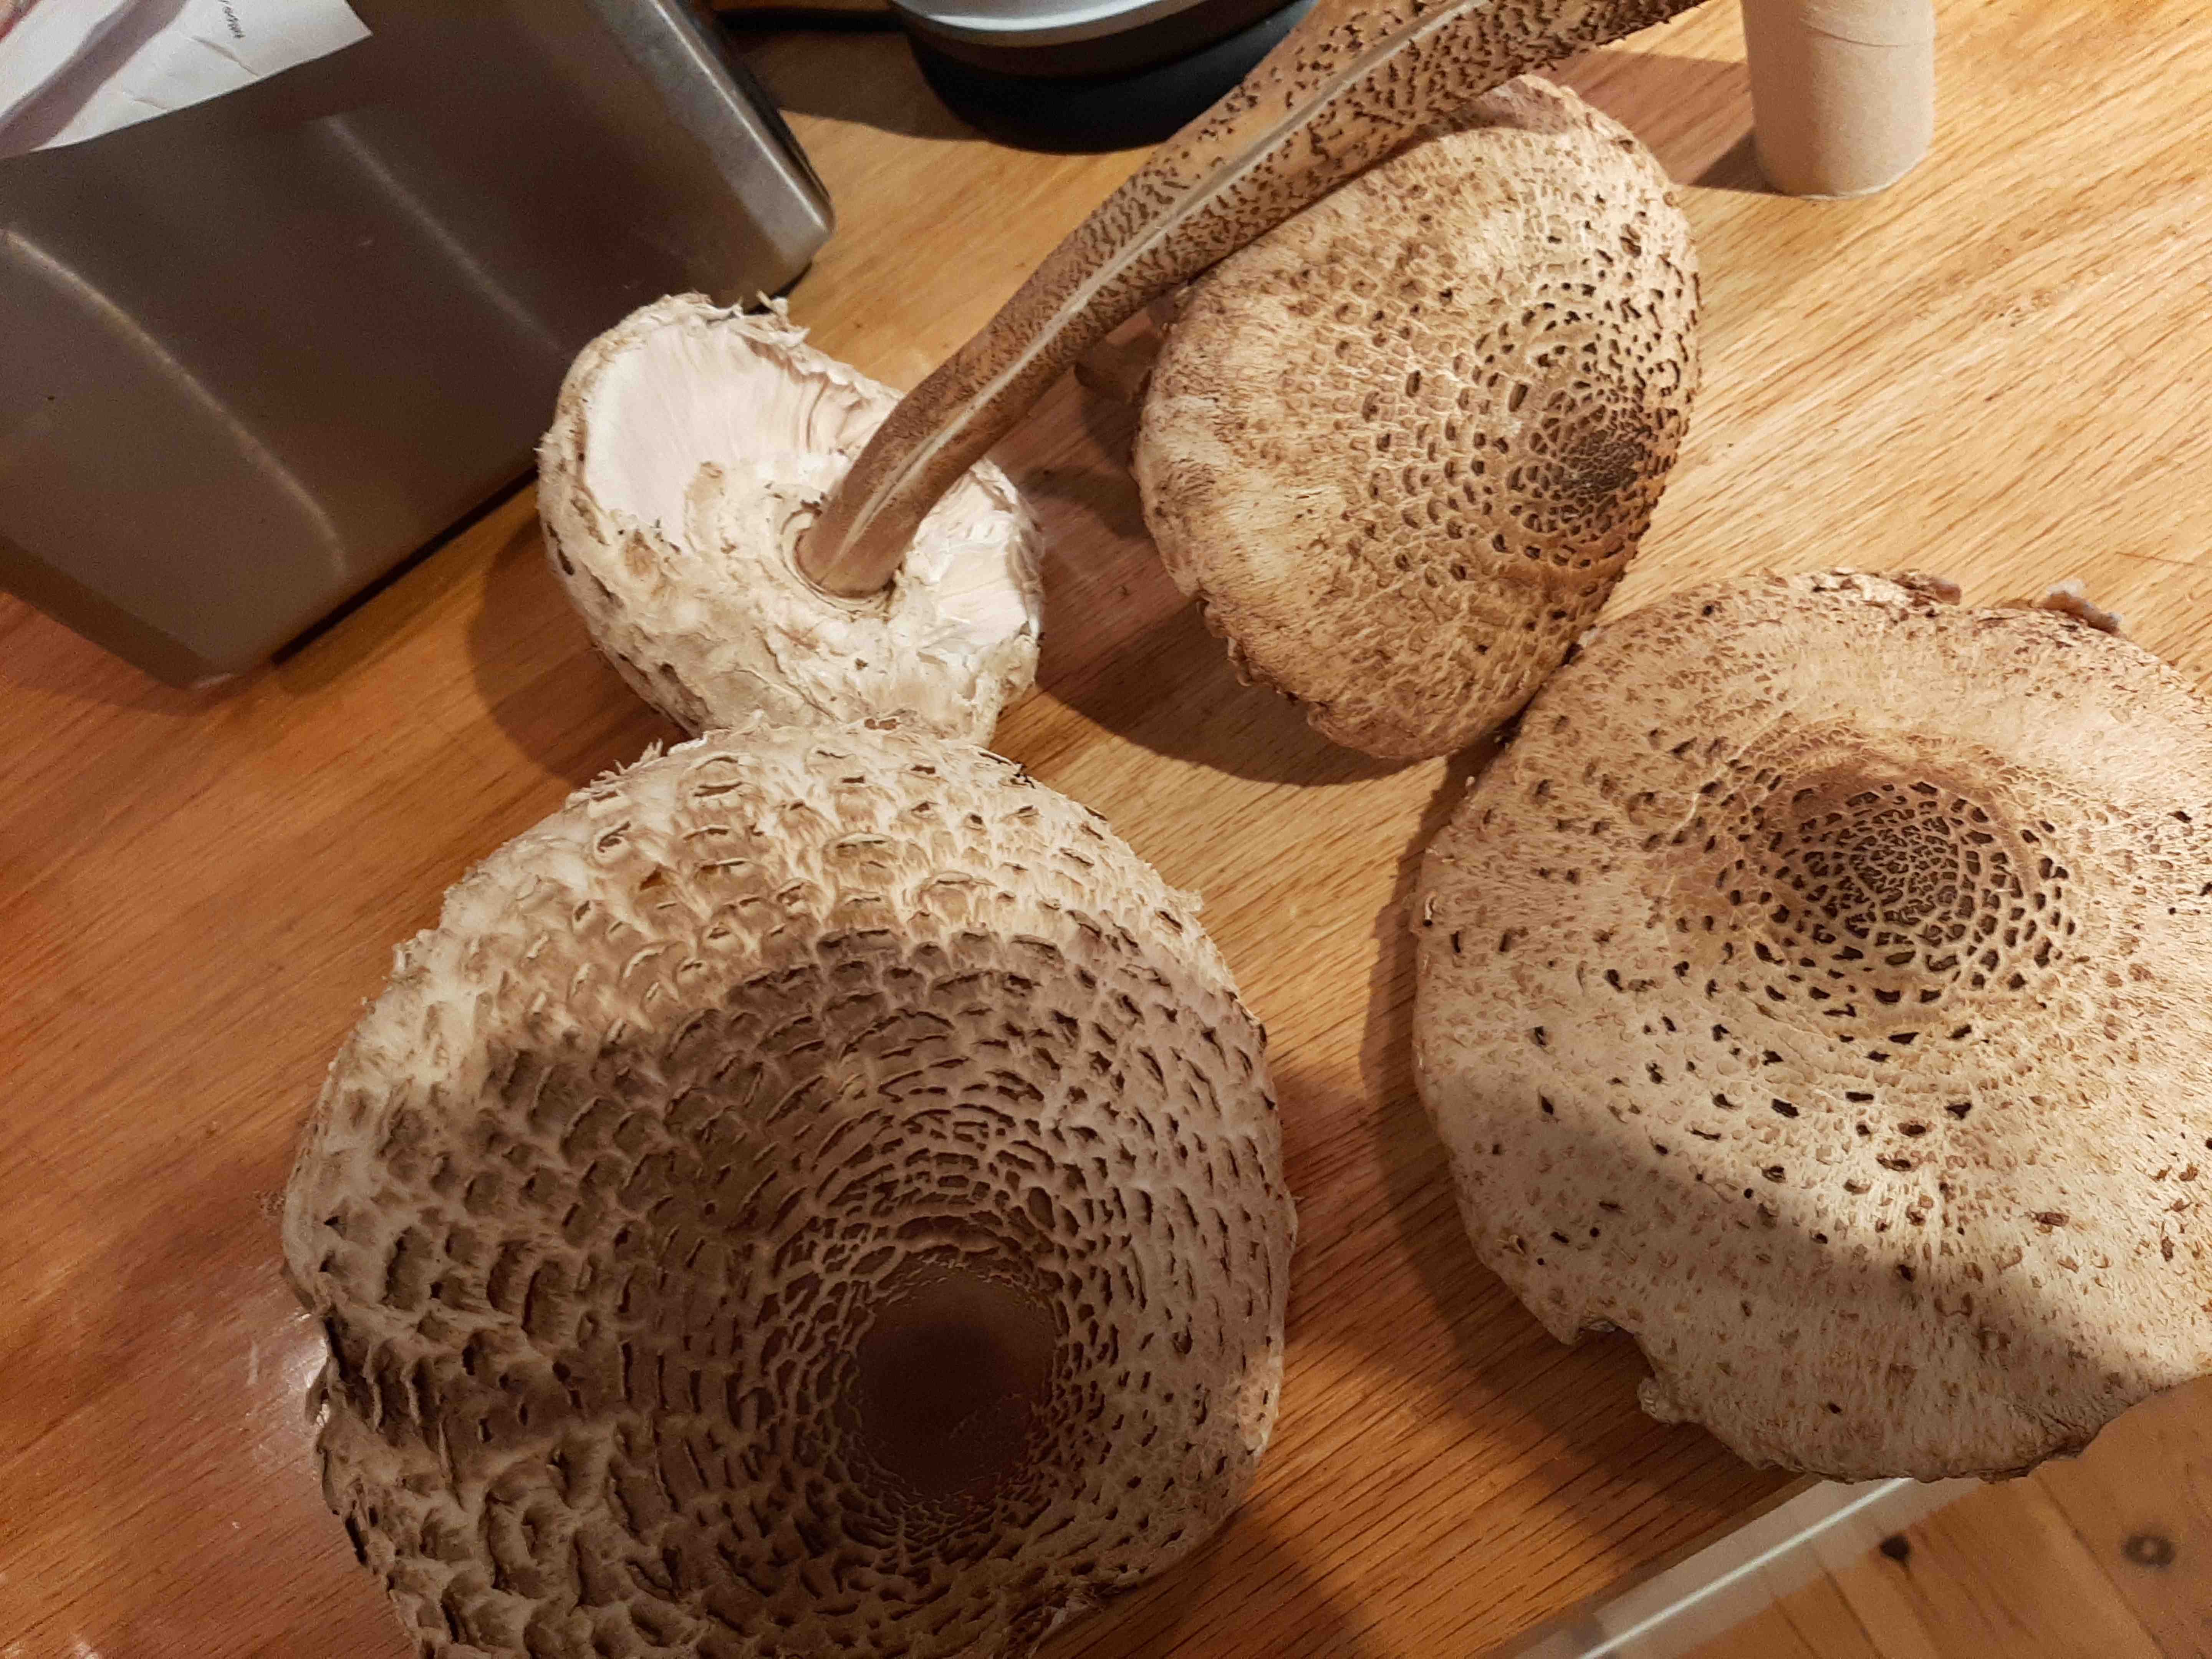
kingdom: Fungi
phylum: Basidiomycota
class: Agaricomycetes
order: Agaricales
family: Agaricaceae
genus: Macrolepiota
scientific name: Macrolepiota procera
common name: stor kæmpeparasolhat
